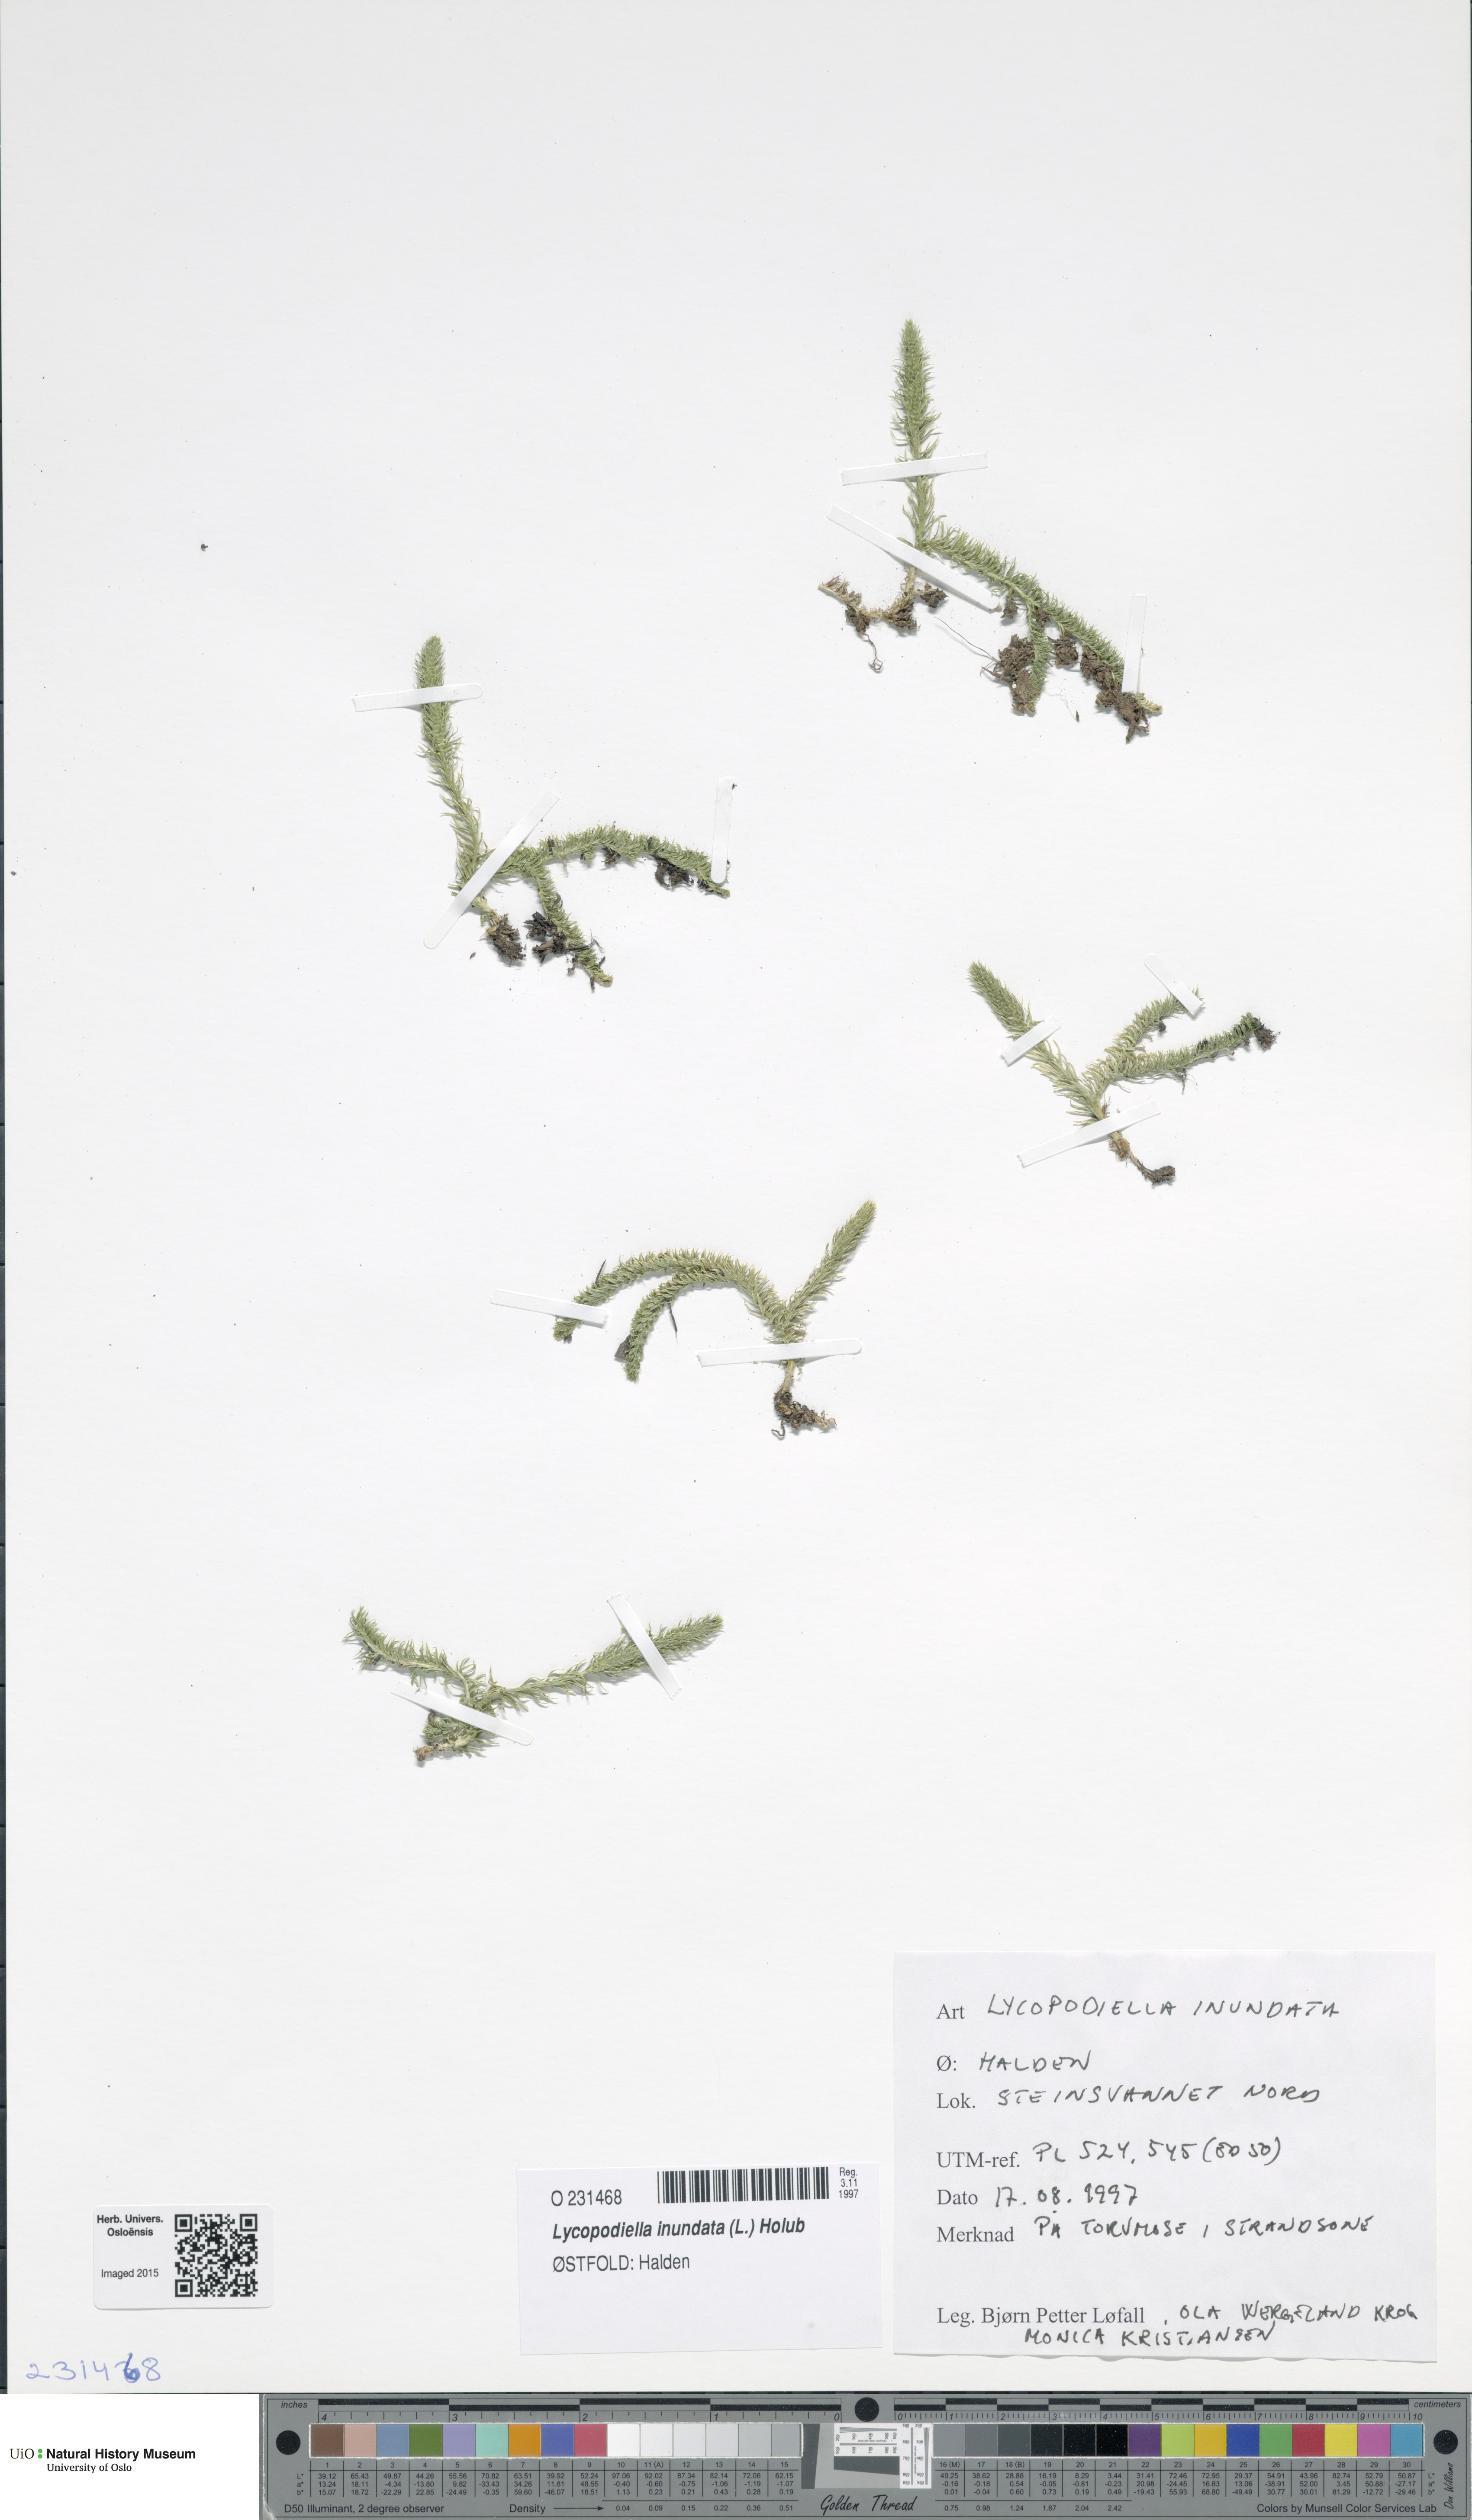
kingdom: Plantae
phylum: Tracheophyta
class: Lycopodiopsida
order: Lycopodiales
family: Lycopodiaceae
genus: Lycopodiella
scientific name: Lycopodiella inundata
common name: Marsh clubmoss
